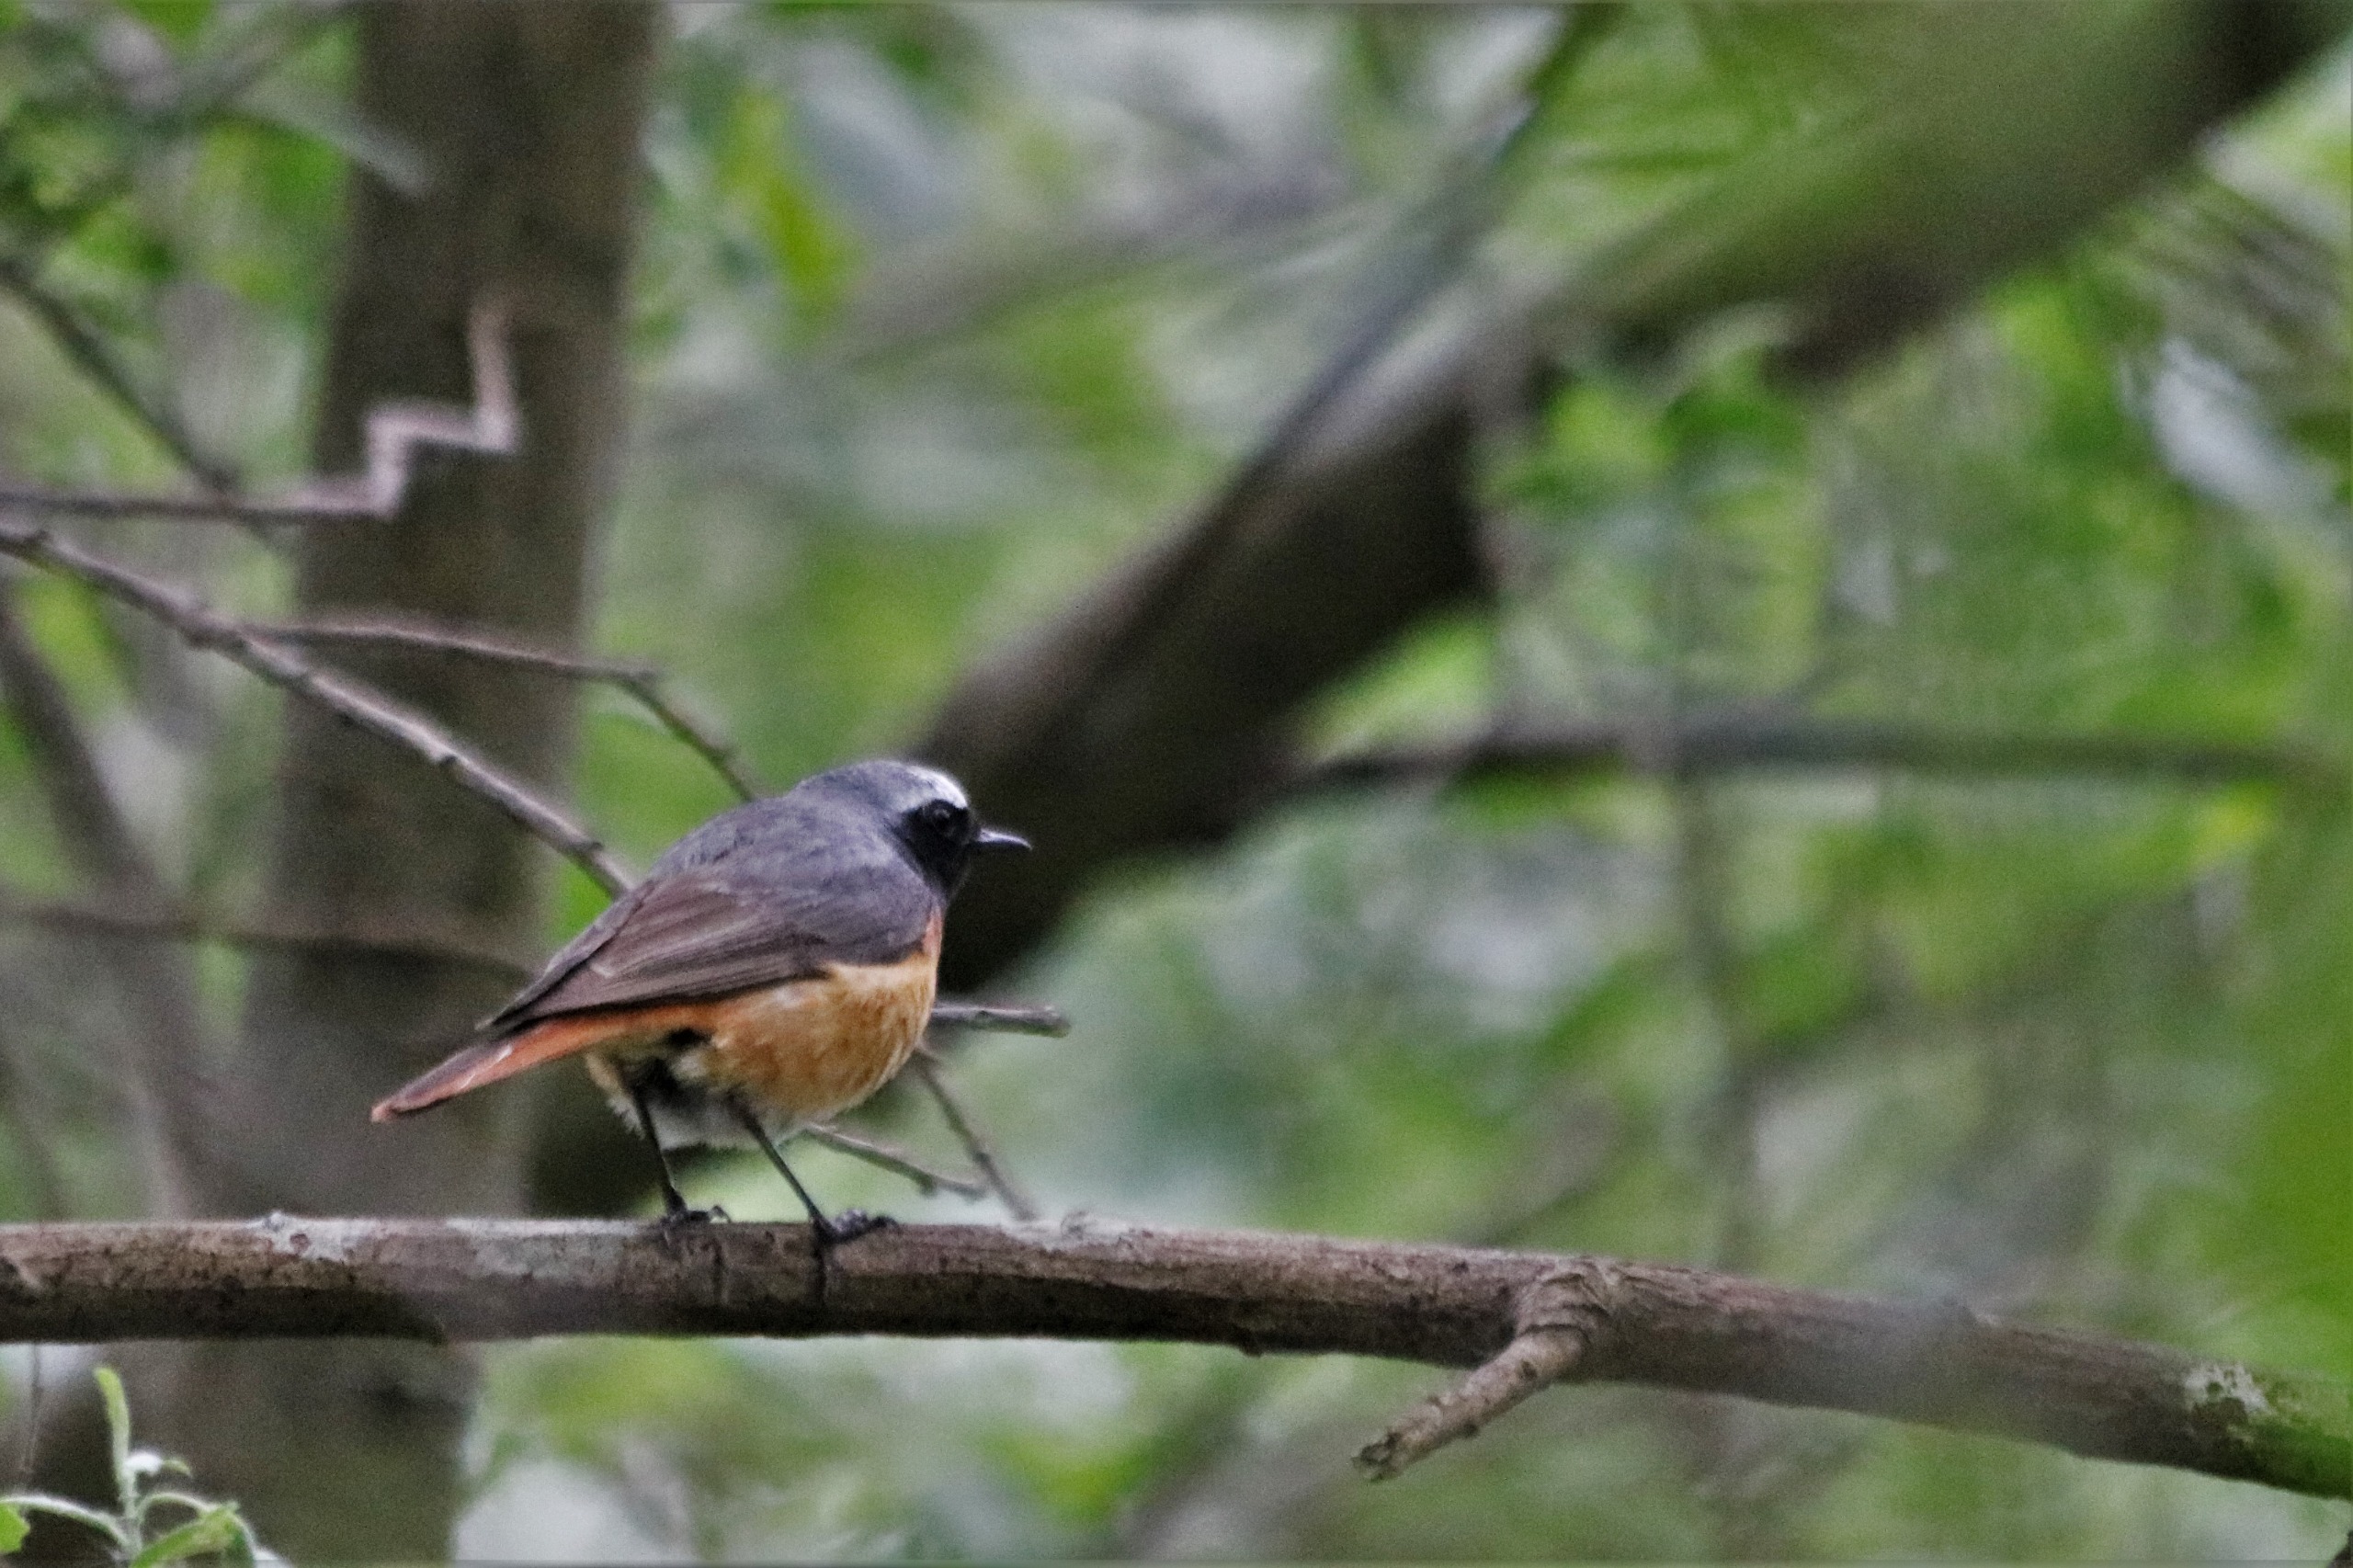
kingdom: Animalia
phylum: Chordata
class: Aves
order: Passeriformes
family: Muscicapidae
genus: Phoenicurus
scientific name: Phoenicurus phoenicurus
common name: Rødstjert
